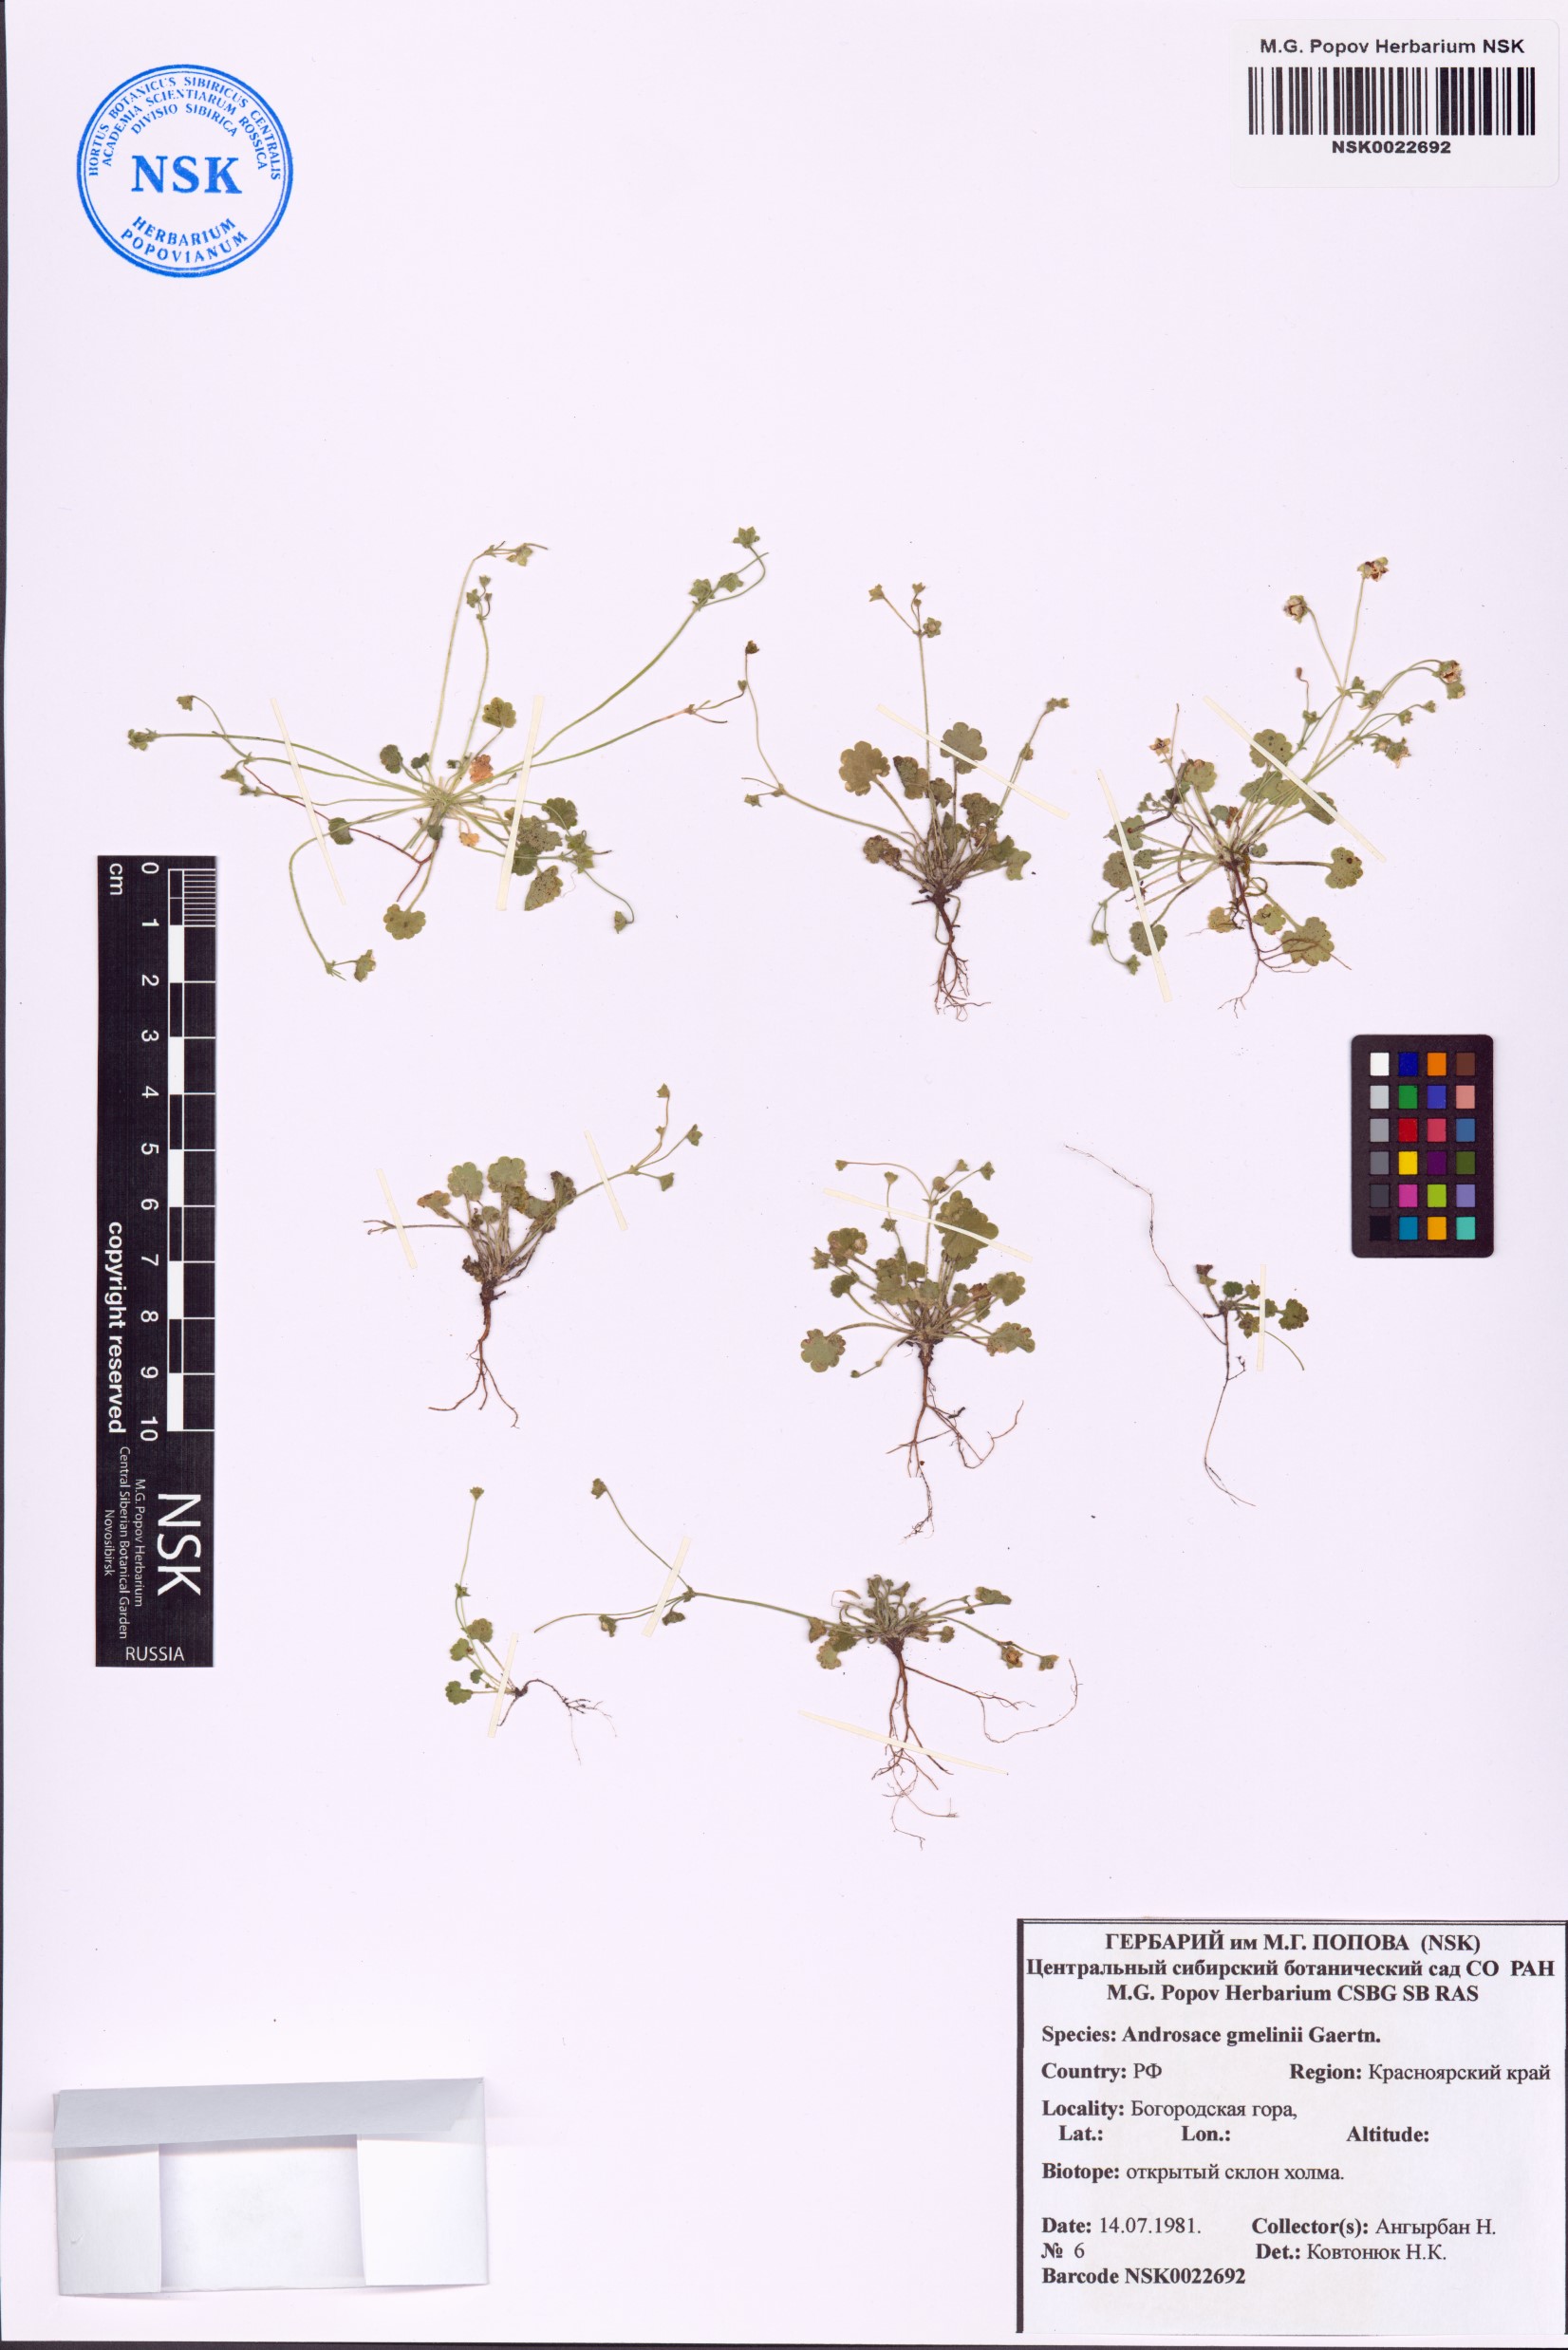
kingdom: Plantae
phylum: Tracheophyta
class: Magnoliopsida
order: Ericales
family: Primulaceae
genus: Androsace
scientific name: Androsace gmelinii
